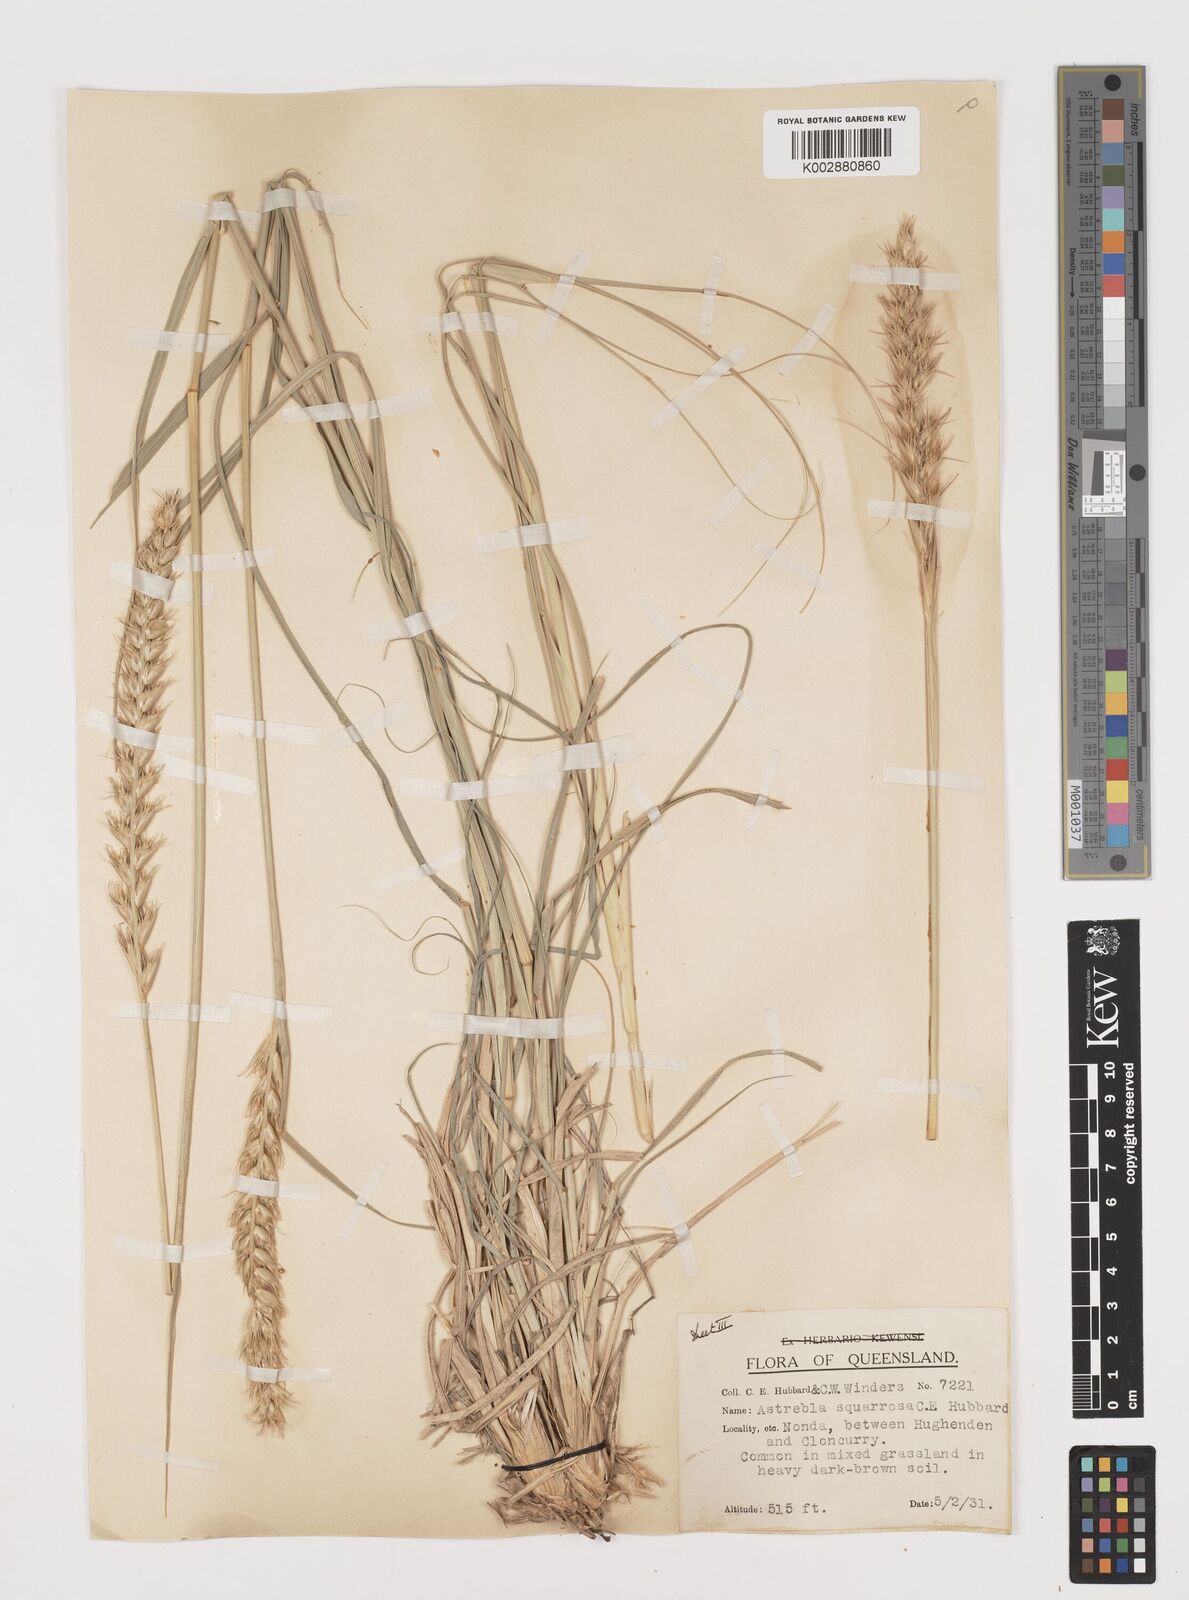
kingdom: Plantae
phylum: Tracheophyta
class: Liliopsida
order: Poales
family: Poaceae
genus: Astrebla
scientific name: Astrebla squarrosa
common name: Wheat-ear mitchell grass
